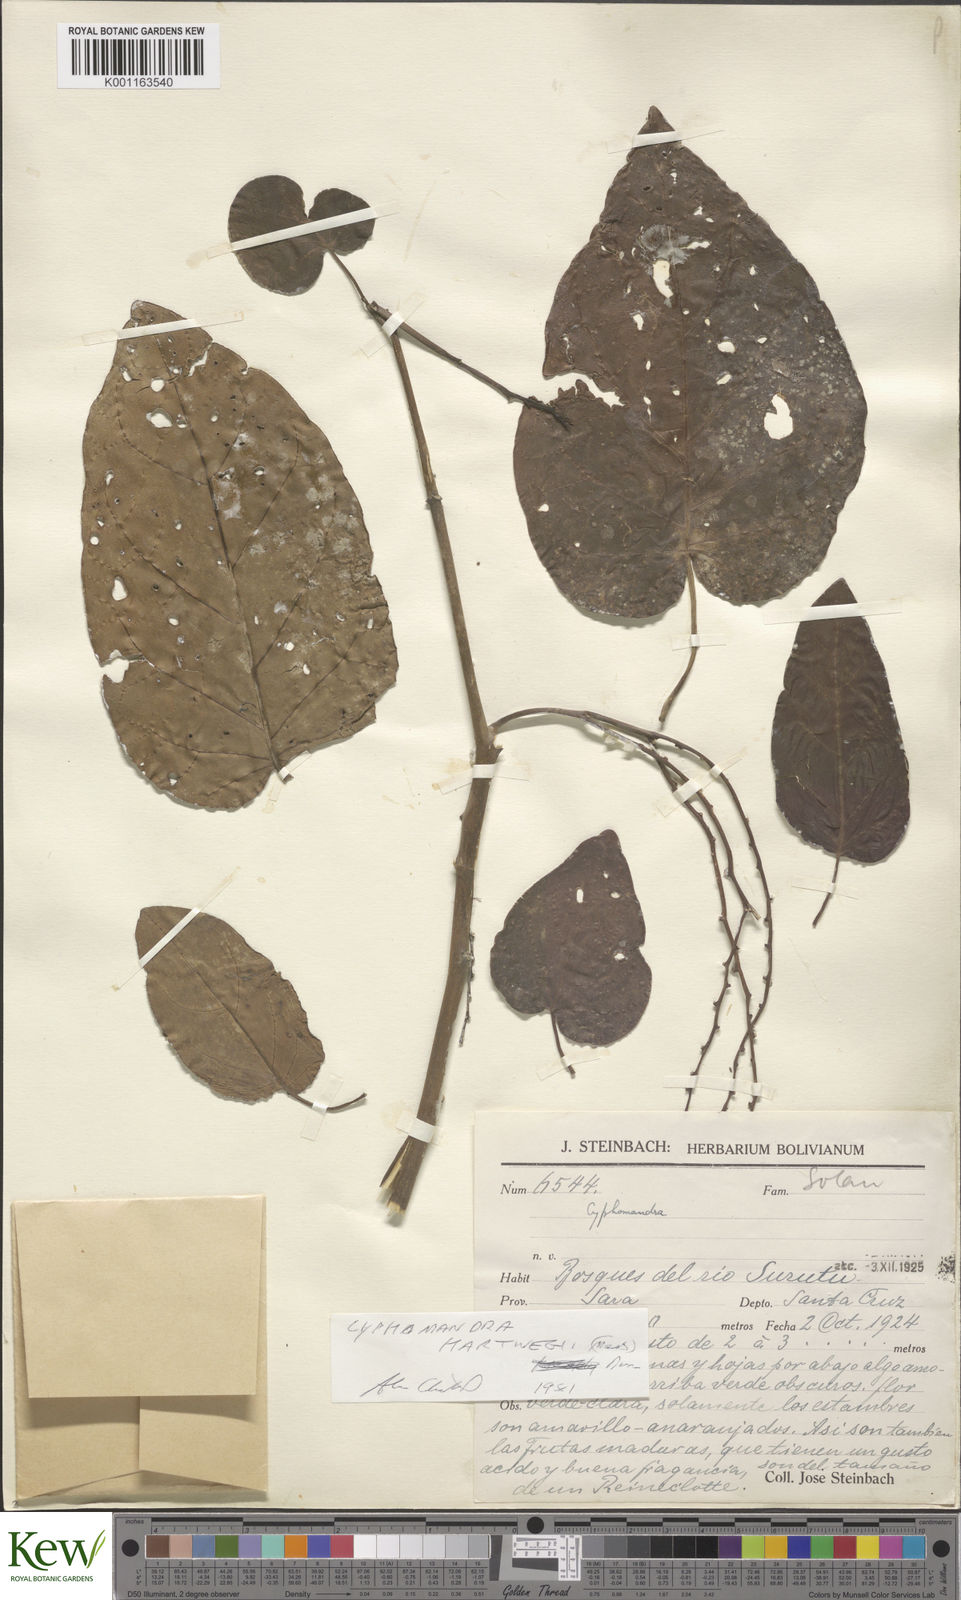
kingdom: Plantae
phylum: Tracheophyta
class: Magnoliopsida
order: Solanales
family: Solanaceae
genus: Solanum
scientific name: Solanum splendens
